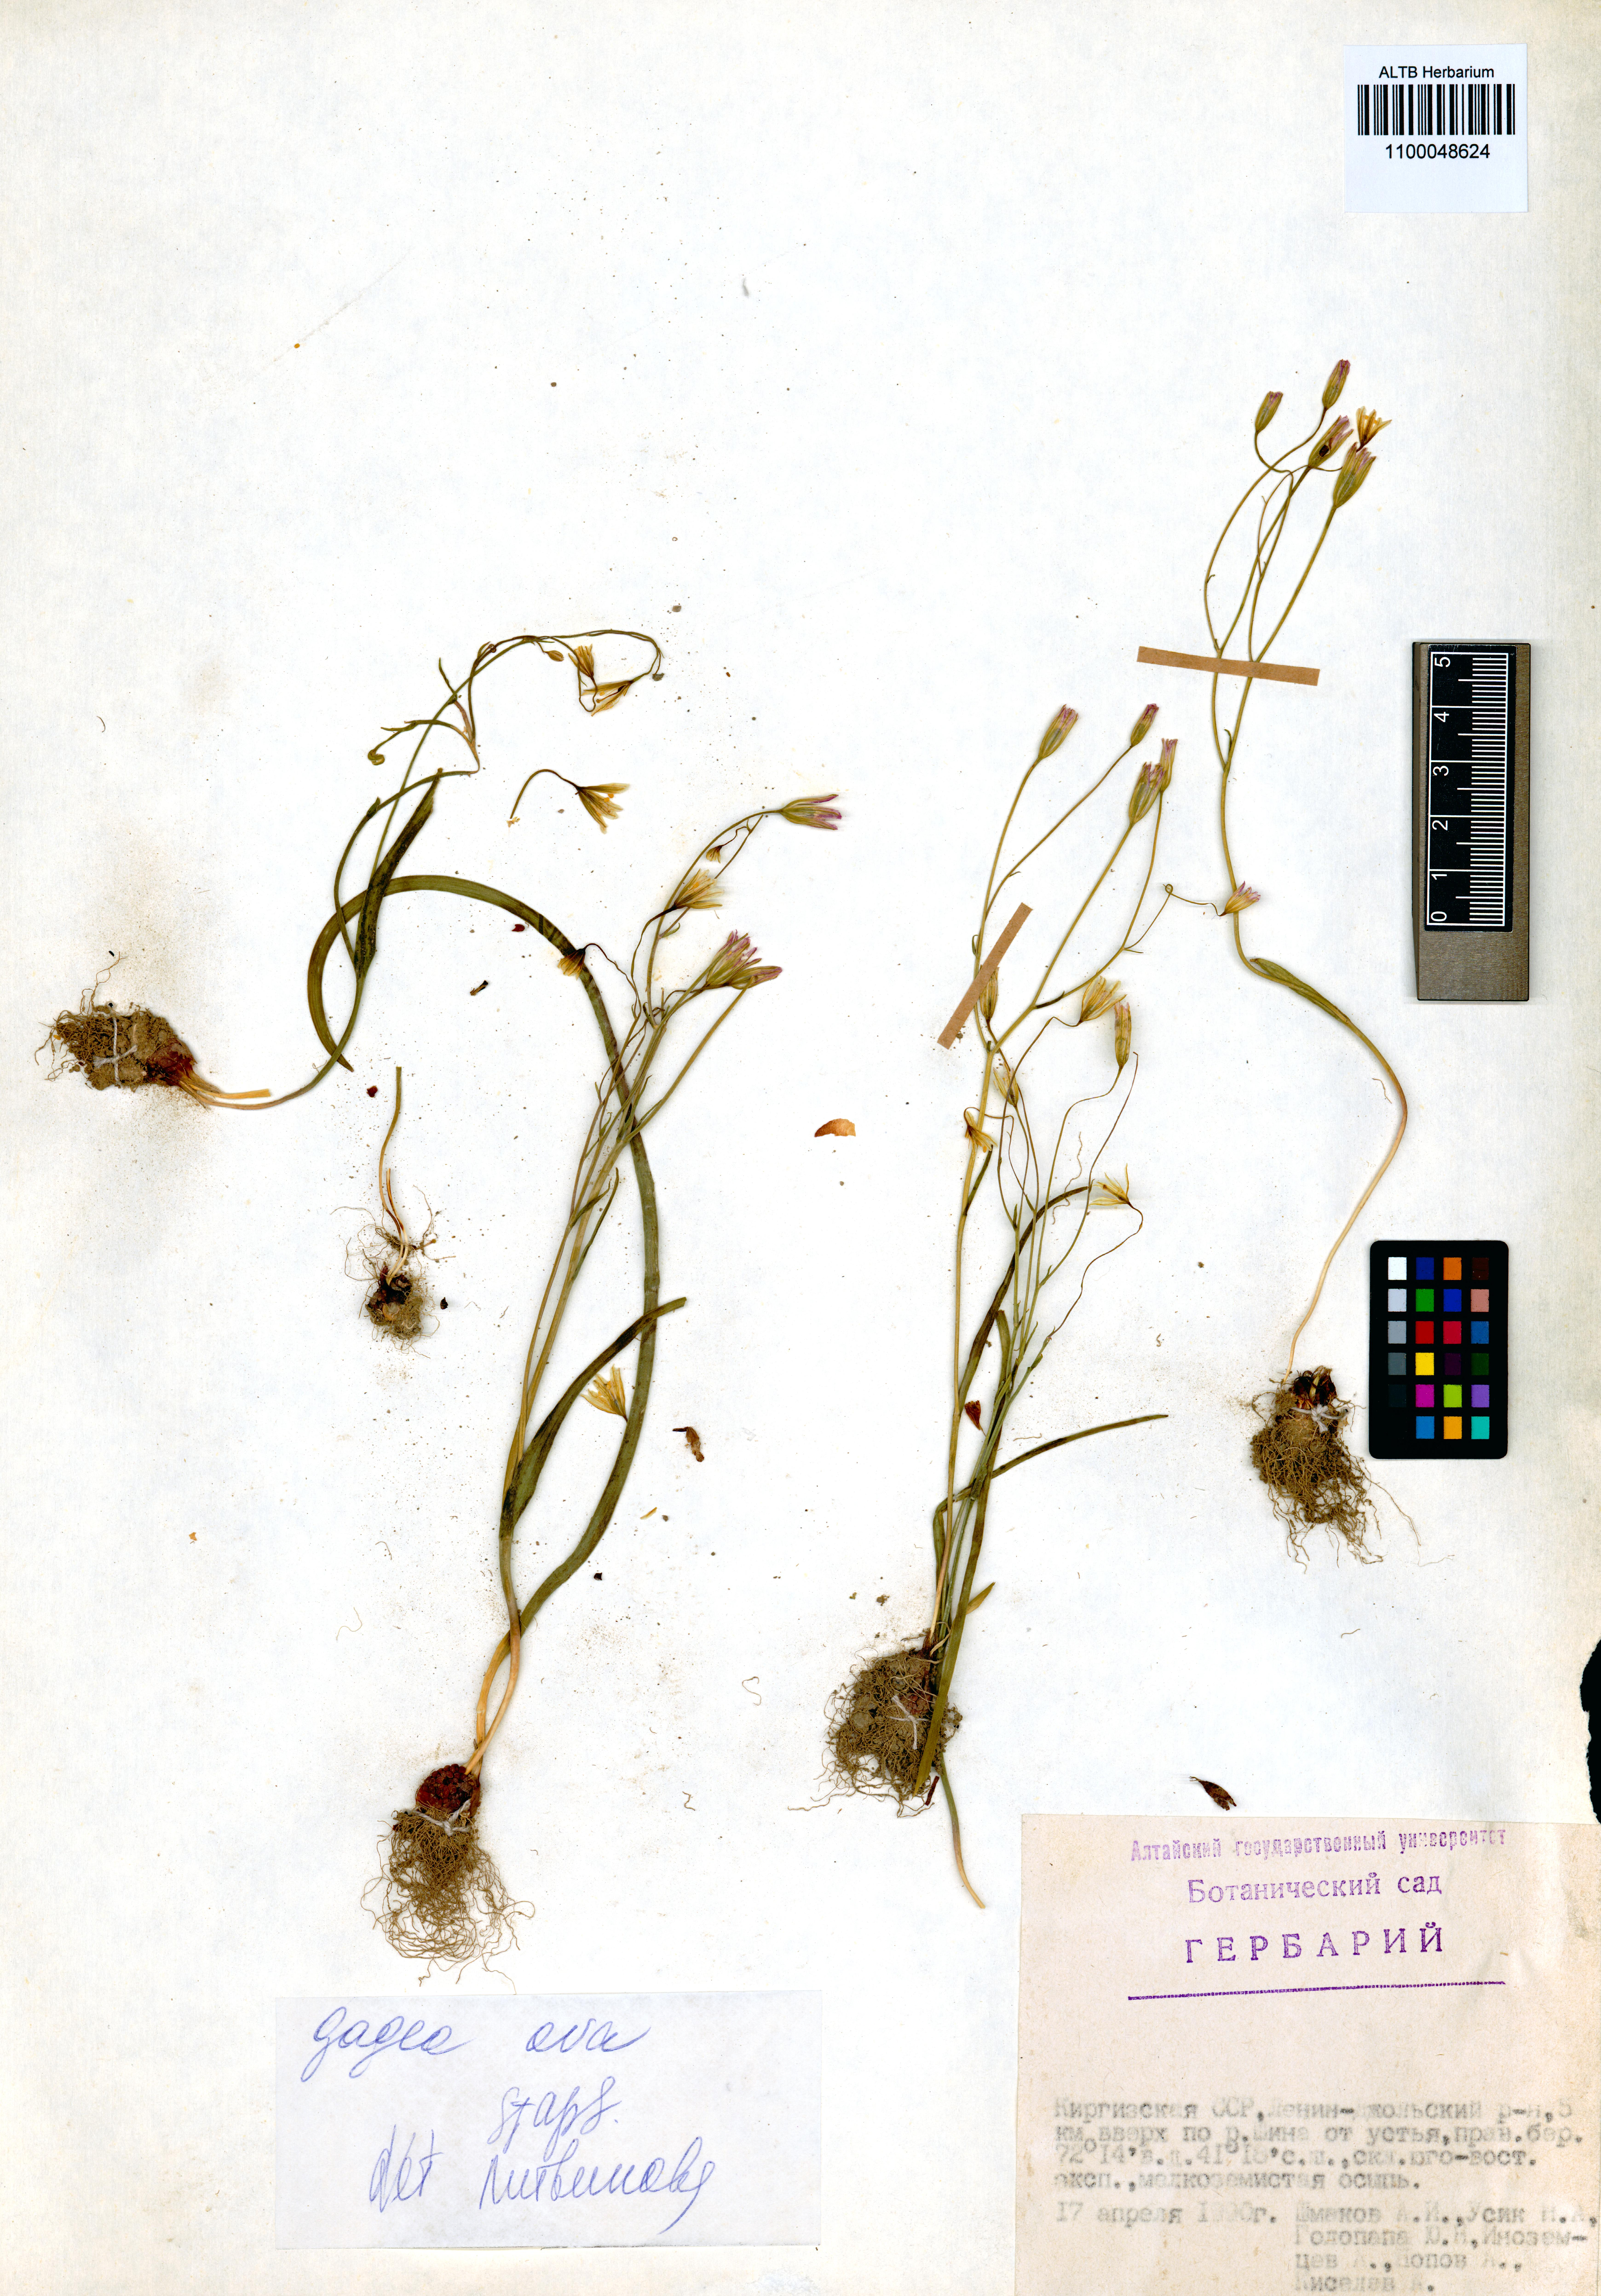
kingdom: Plantae
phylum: Tracheophyta
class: Liliopsida
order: Liliales
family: Liliaceae
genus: Gagea
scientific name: Gagea kunawurensis
